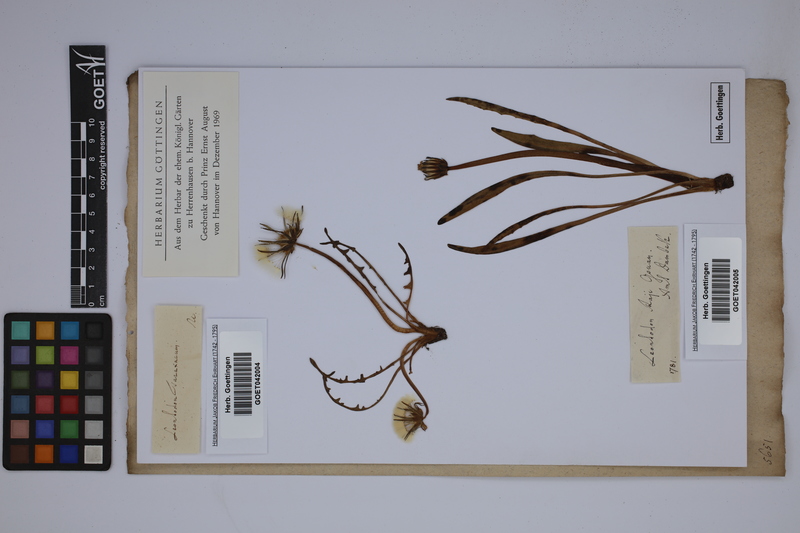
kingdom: Plantae
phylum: Tracheophyta
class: Magnoliopsida
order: Asterales
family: Asteraceae
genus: Taraxacum
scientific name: Taraxacum raii
